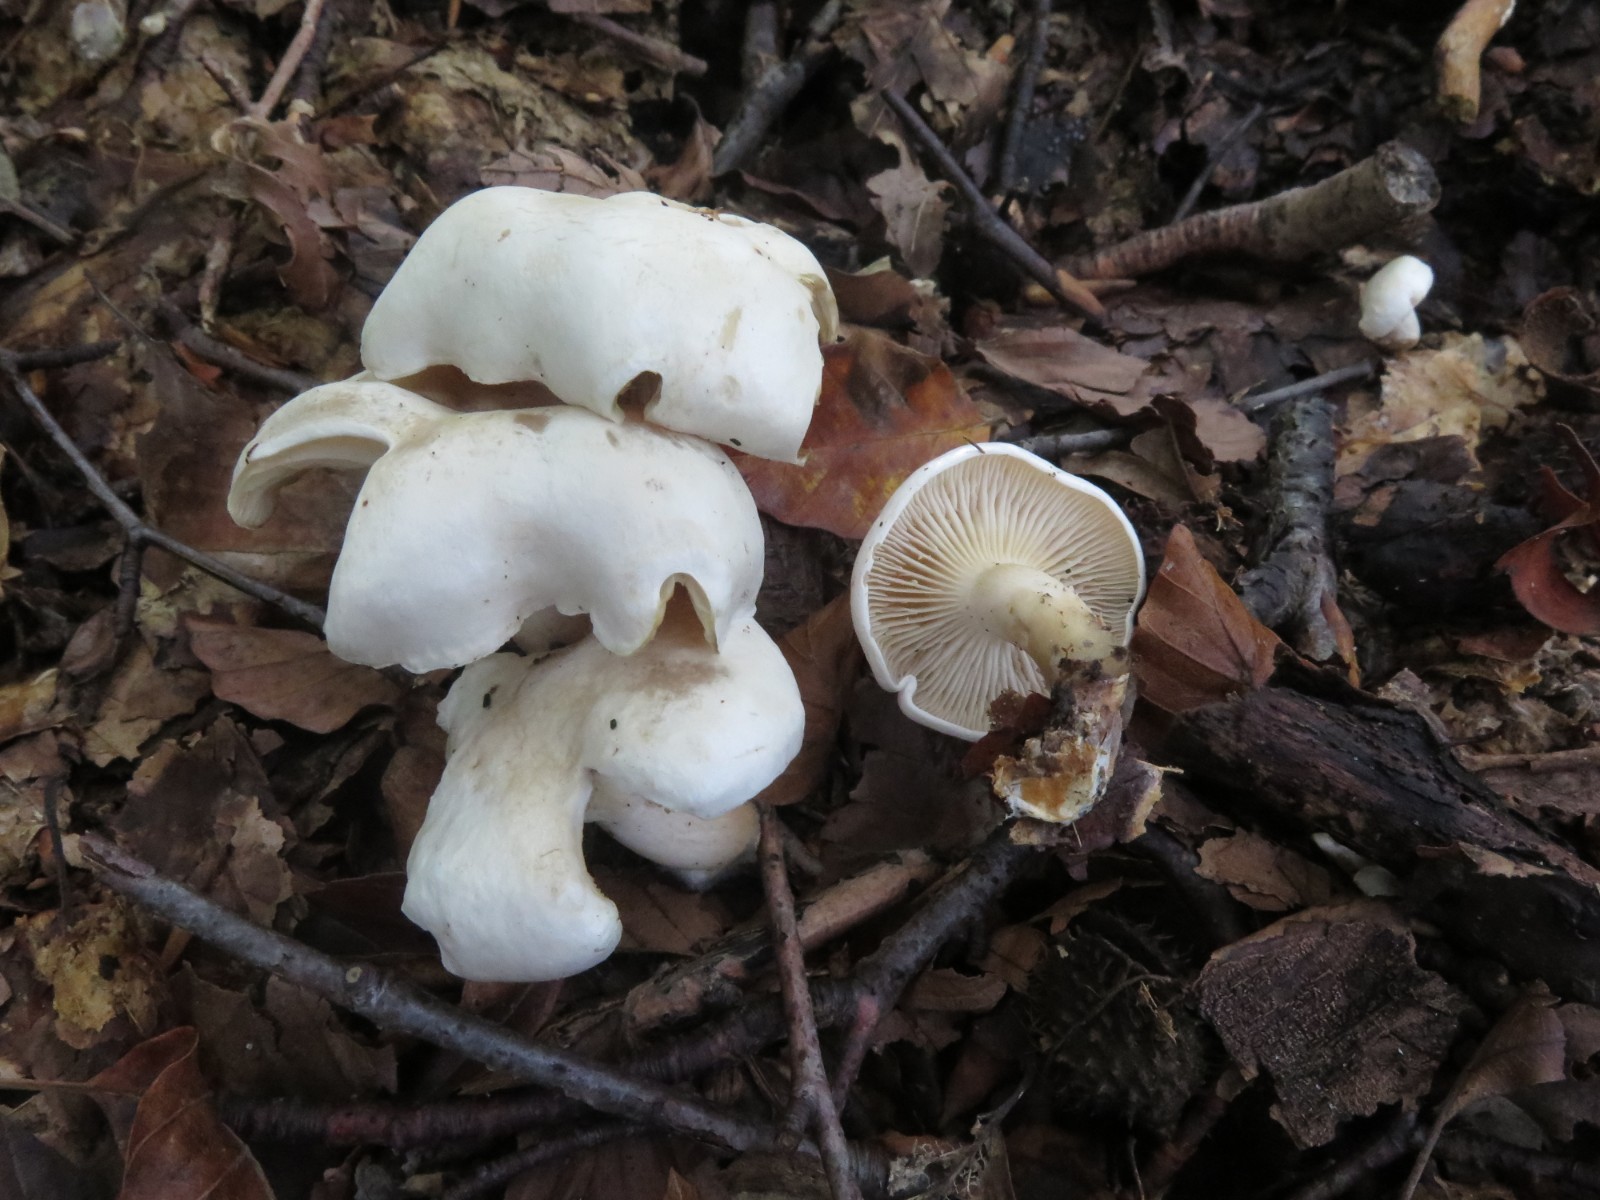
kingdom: Fungi
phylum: Basidiomycota
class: Agaricomycetes
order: Agaricales
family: Tricholomataceae
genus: Clitocybe
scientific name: Clitocybe phyllophila
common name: løv-tragthat
